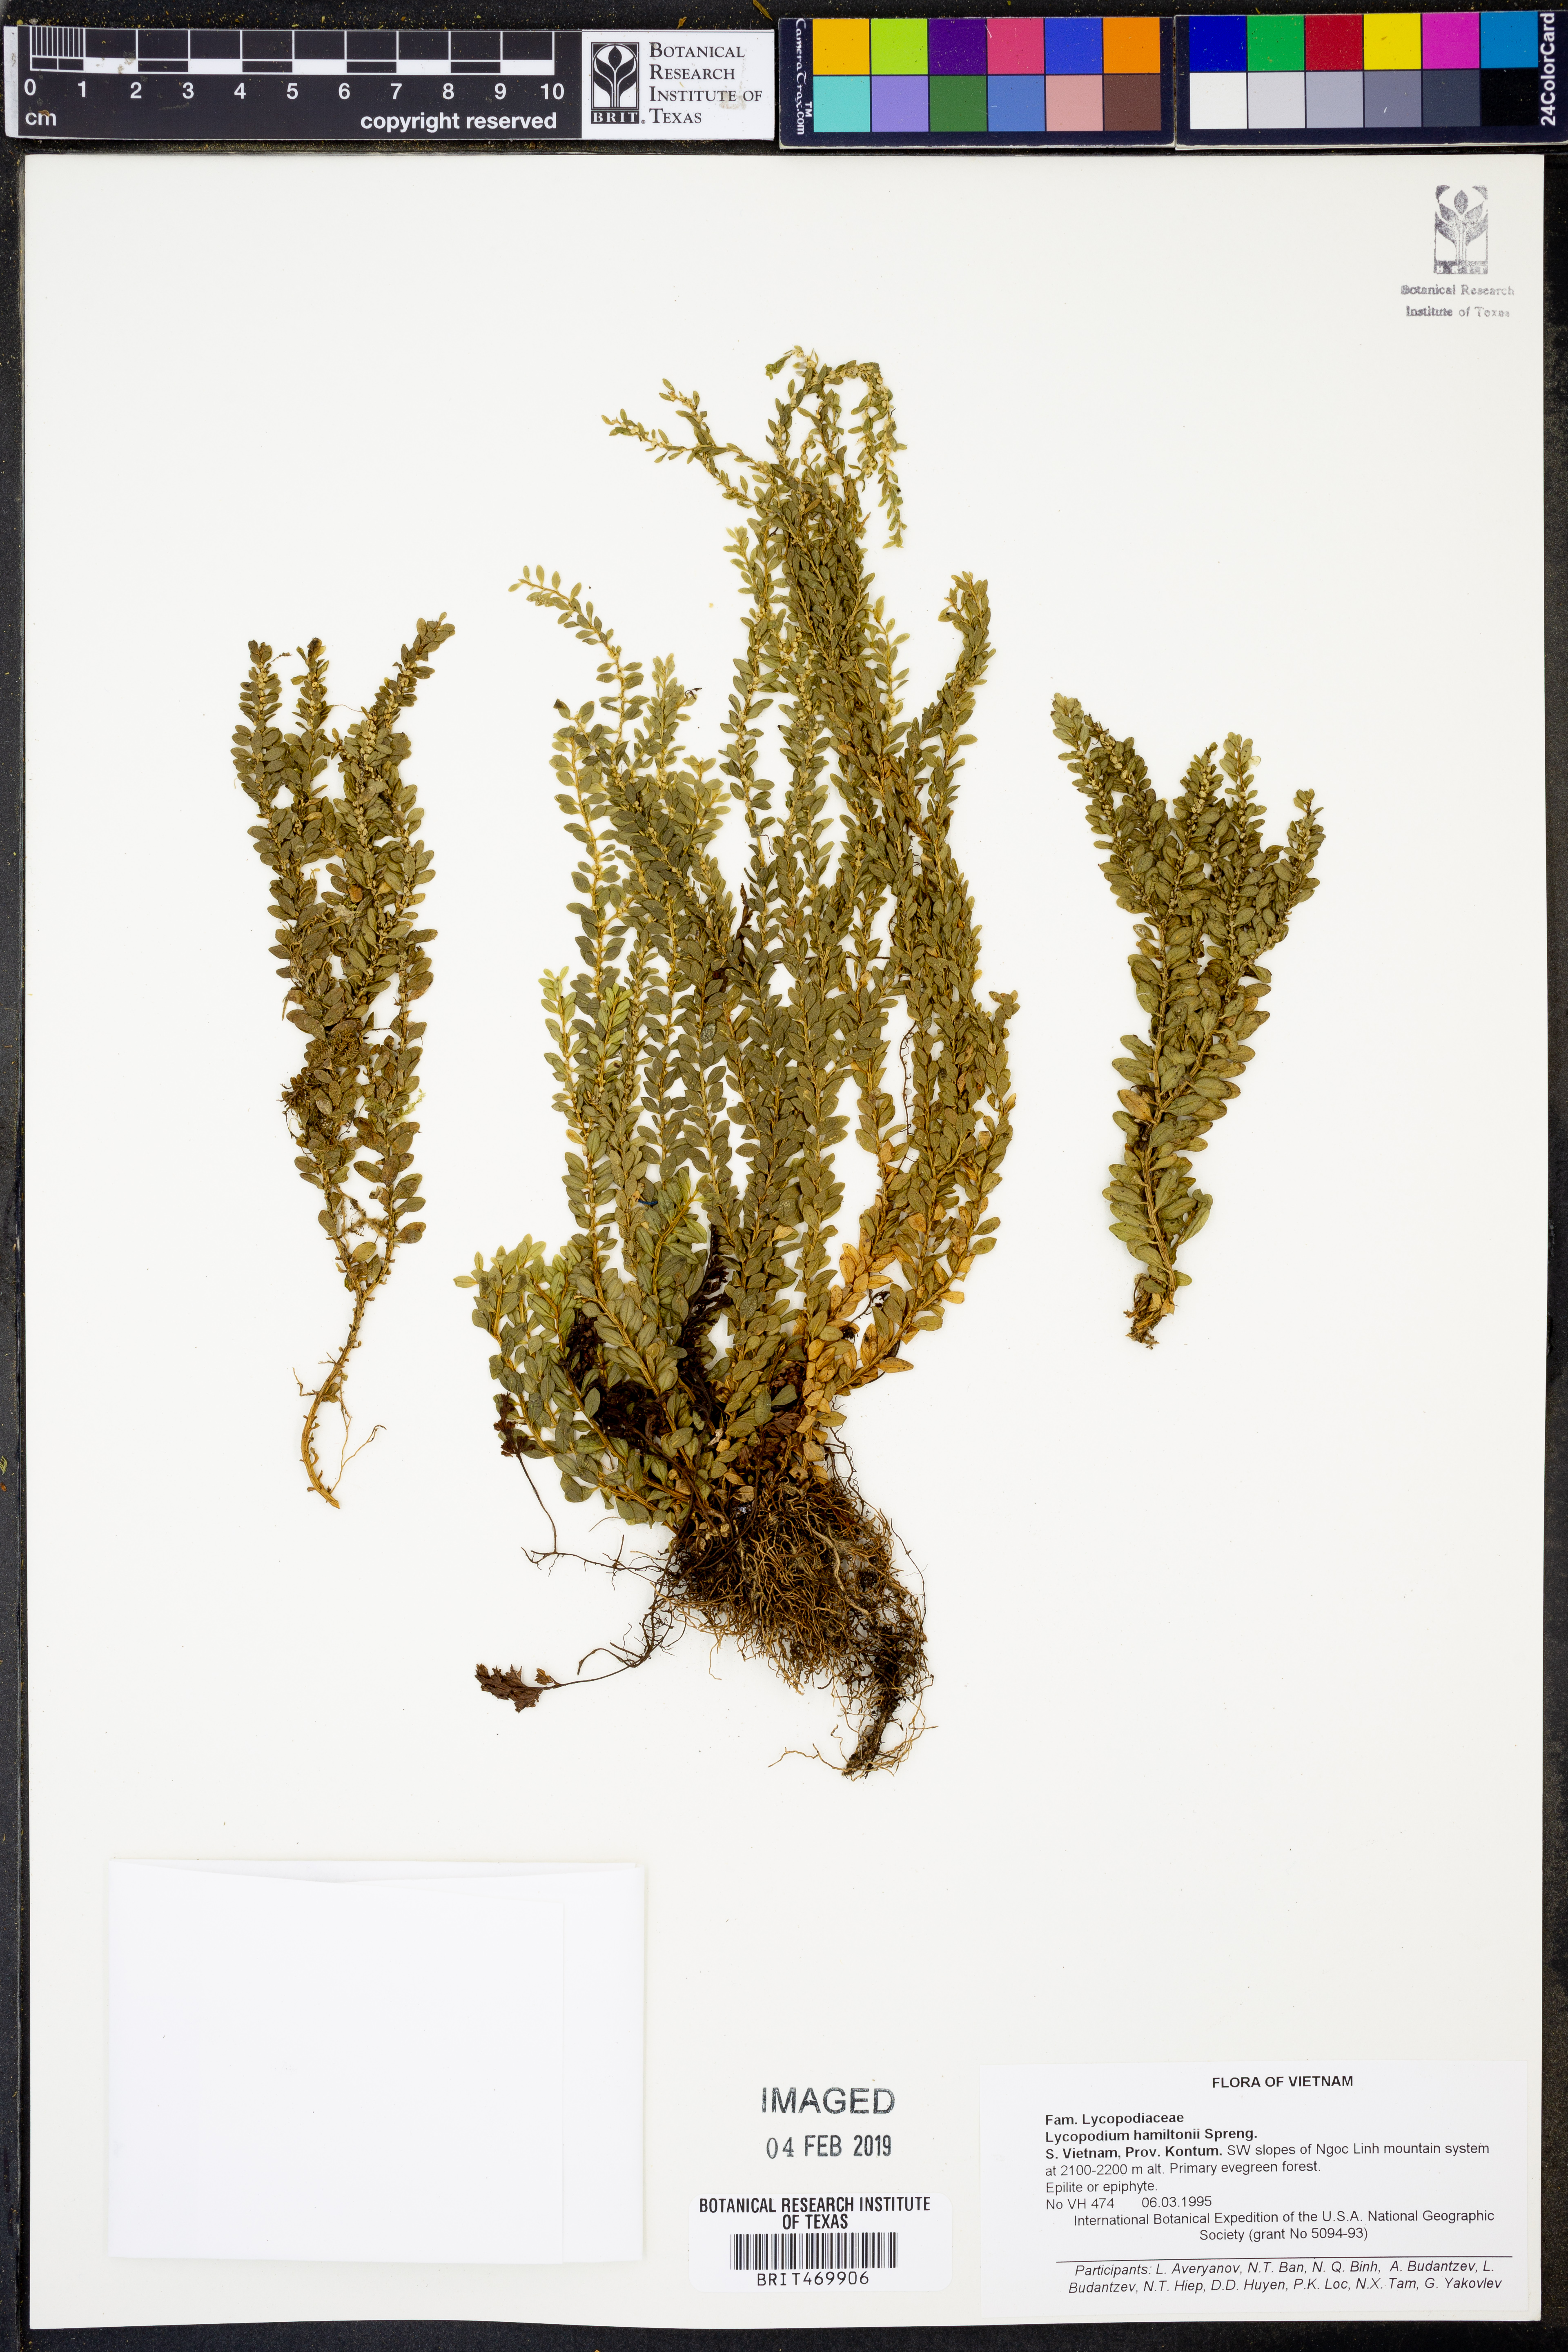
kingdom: Plantae
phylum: Tracheophyta
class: Lycopodiopsida
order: Lycopodiales
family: Lycopodiaceae
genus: Phlegmariurus
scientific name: Phlegmariurus hamiltonii
